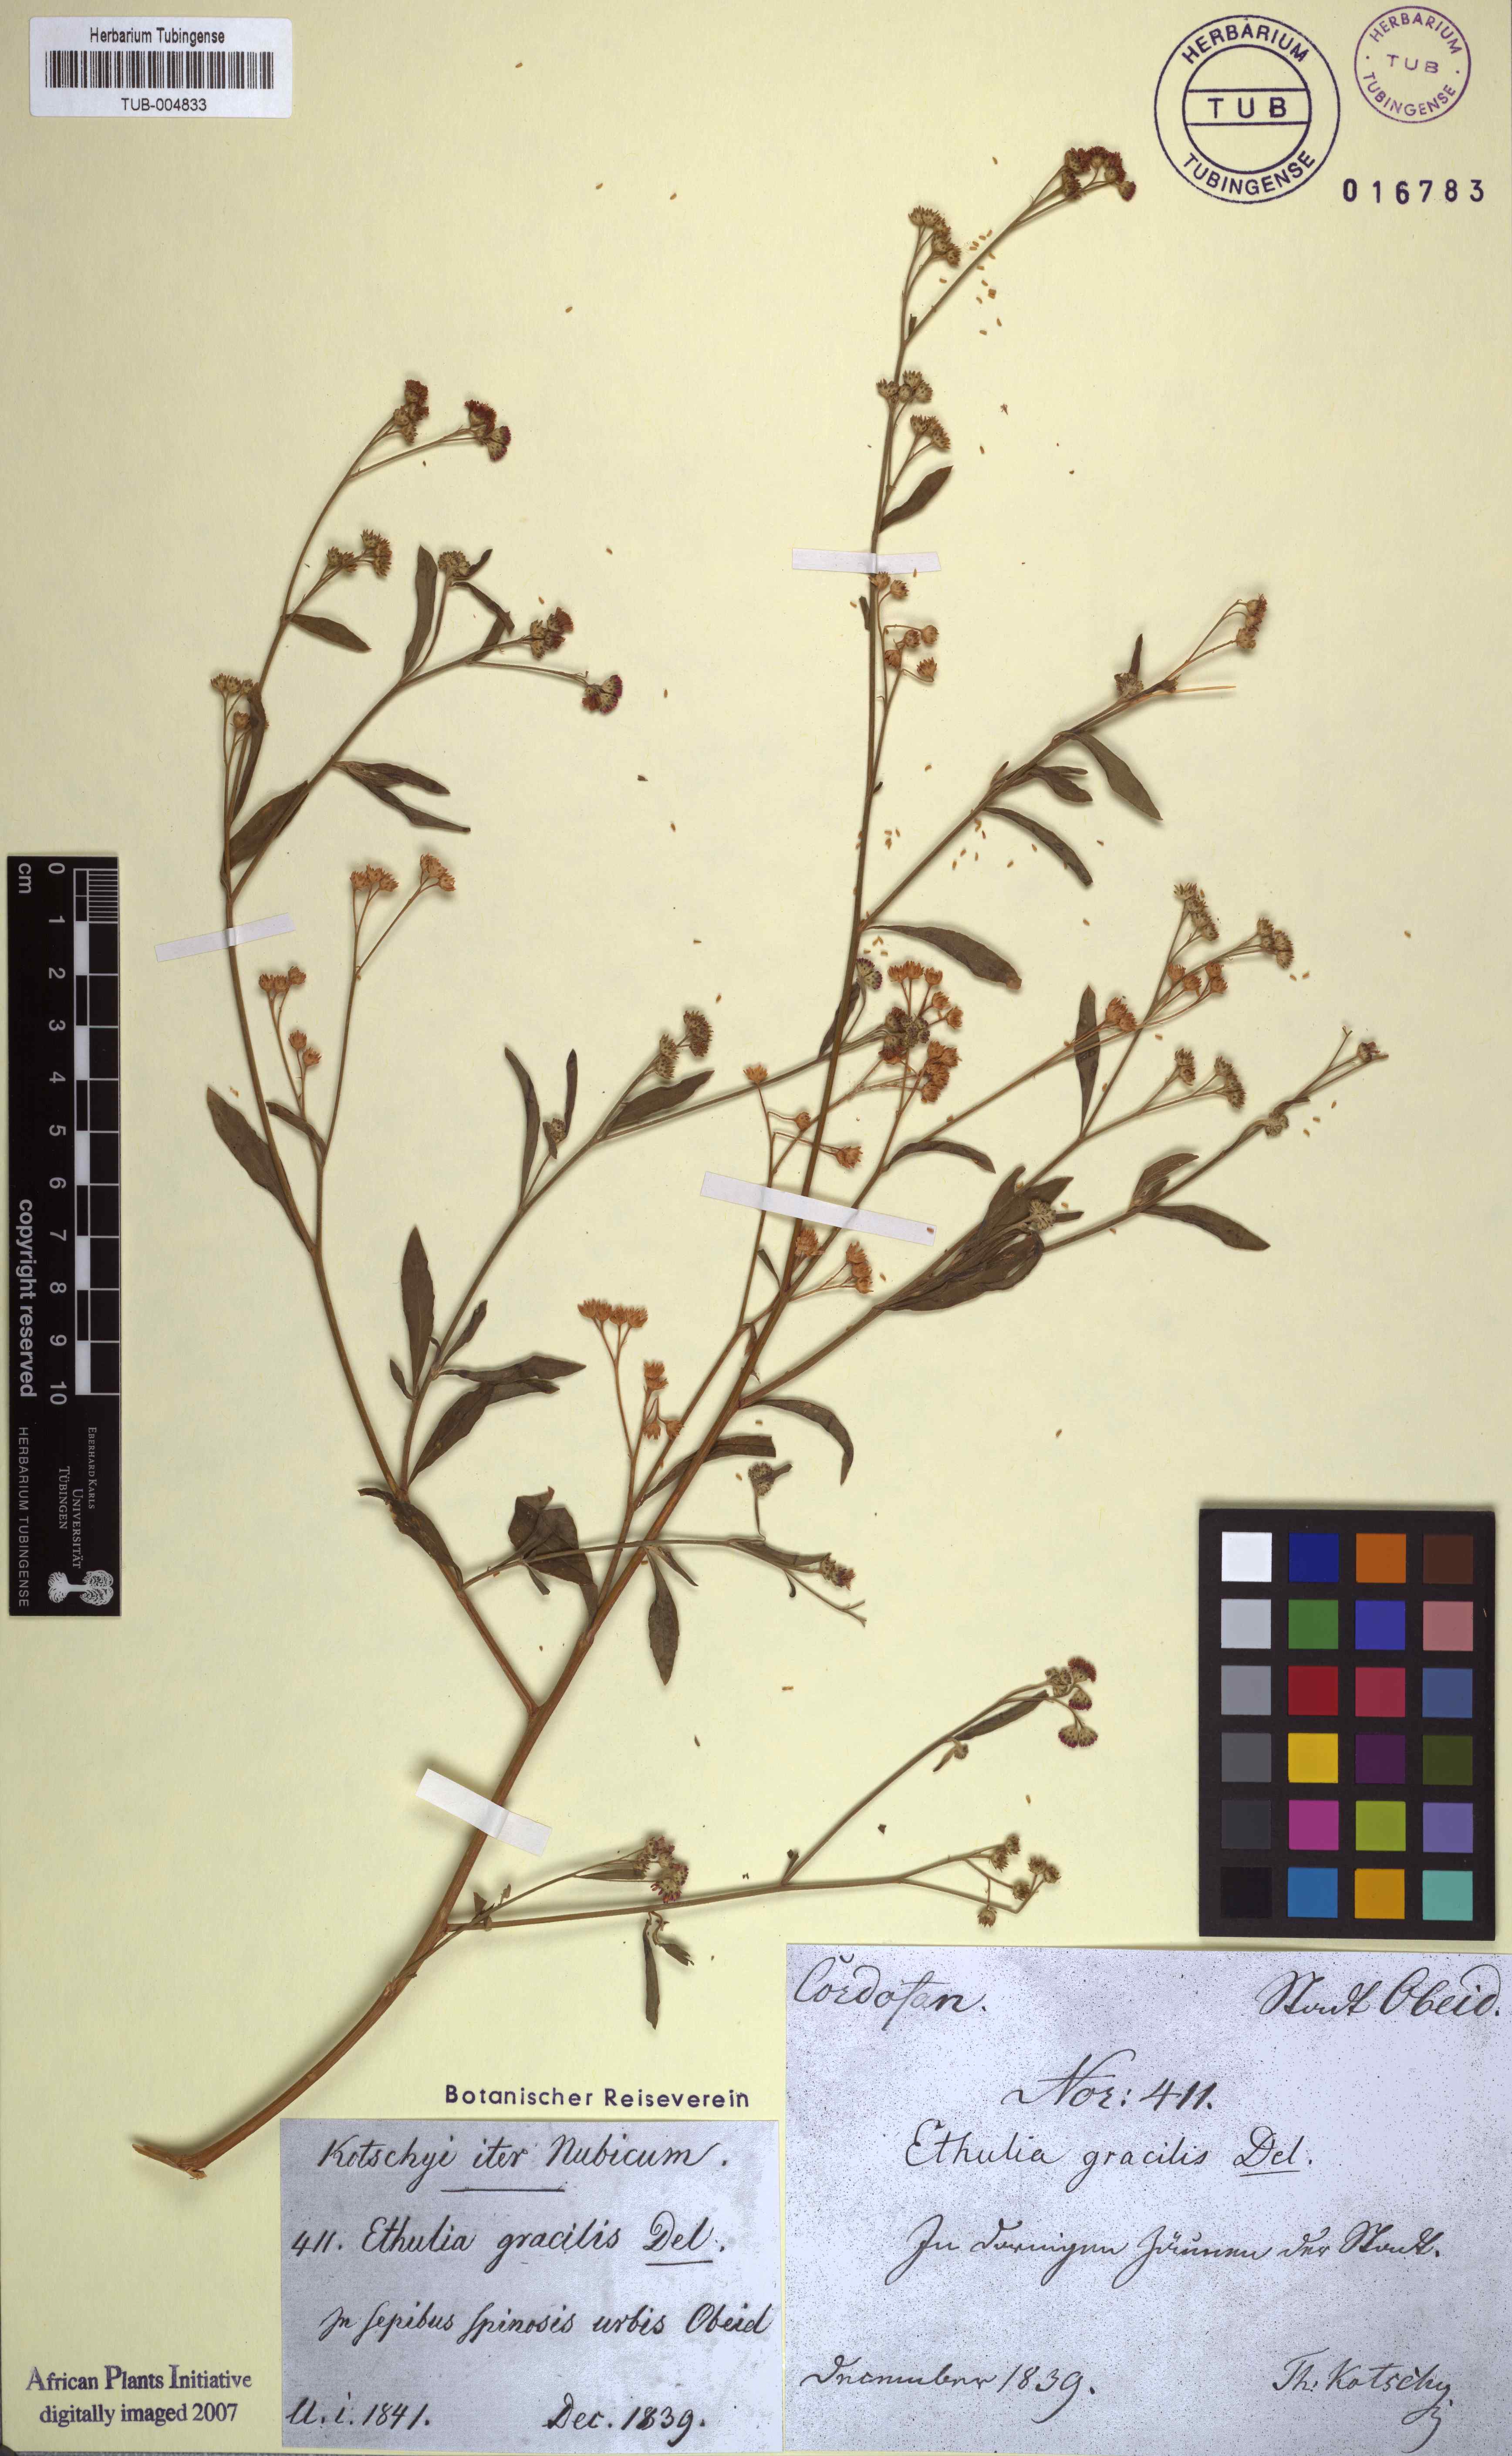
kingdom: Plantae
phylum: Tracheophyta
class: Magnoliopsida
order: Asterales
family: Asteraceae
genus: Ethulia
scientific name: Ethulia conyzoides
